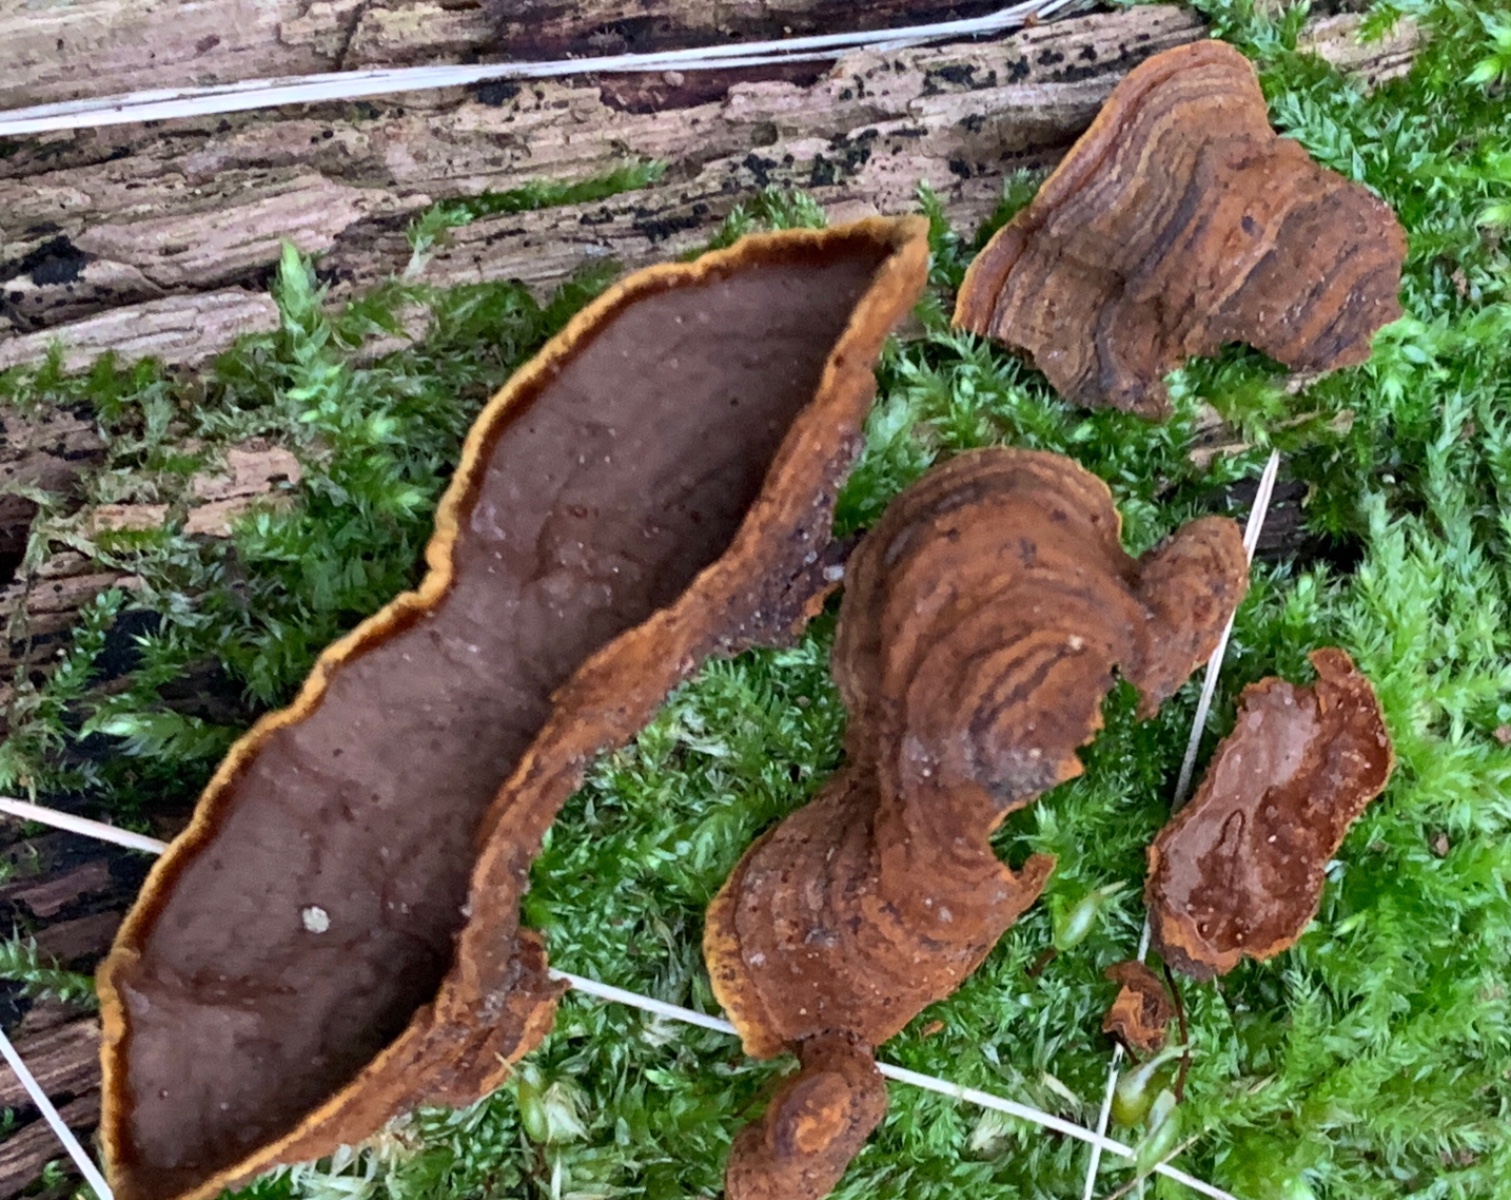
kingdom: Fungi
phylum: Basidiomycota
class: Agaricomycetes
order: Hymenochaetales
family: Hymenochaetaceae
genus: Hymenochaete
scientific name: Hymenochaete rubiginosa
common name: stiv ruslædersvamp
